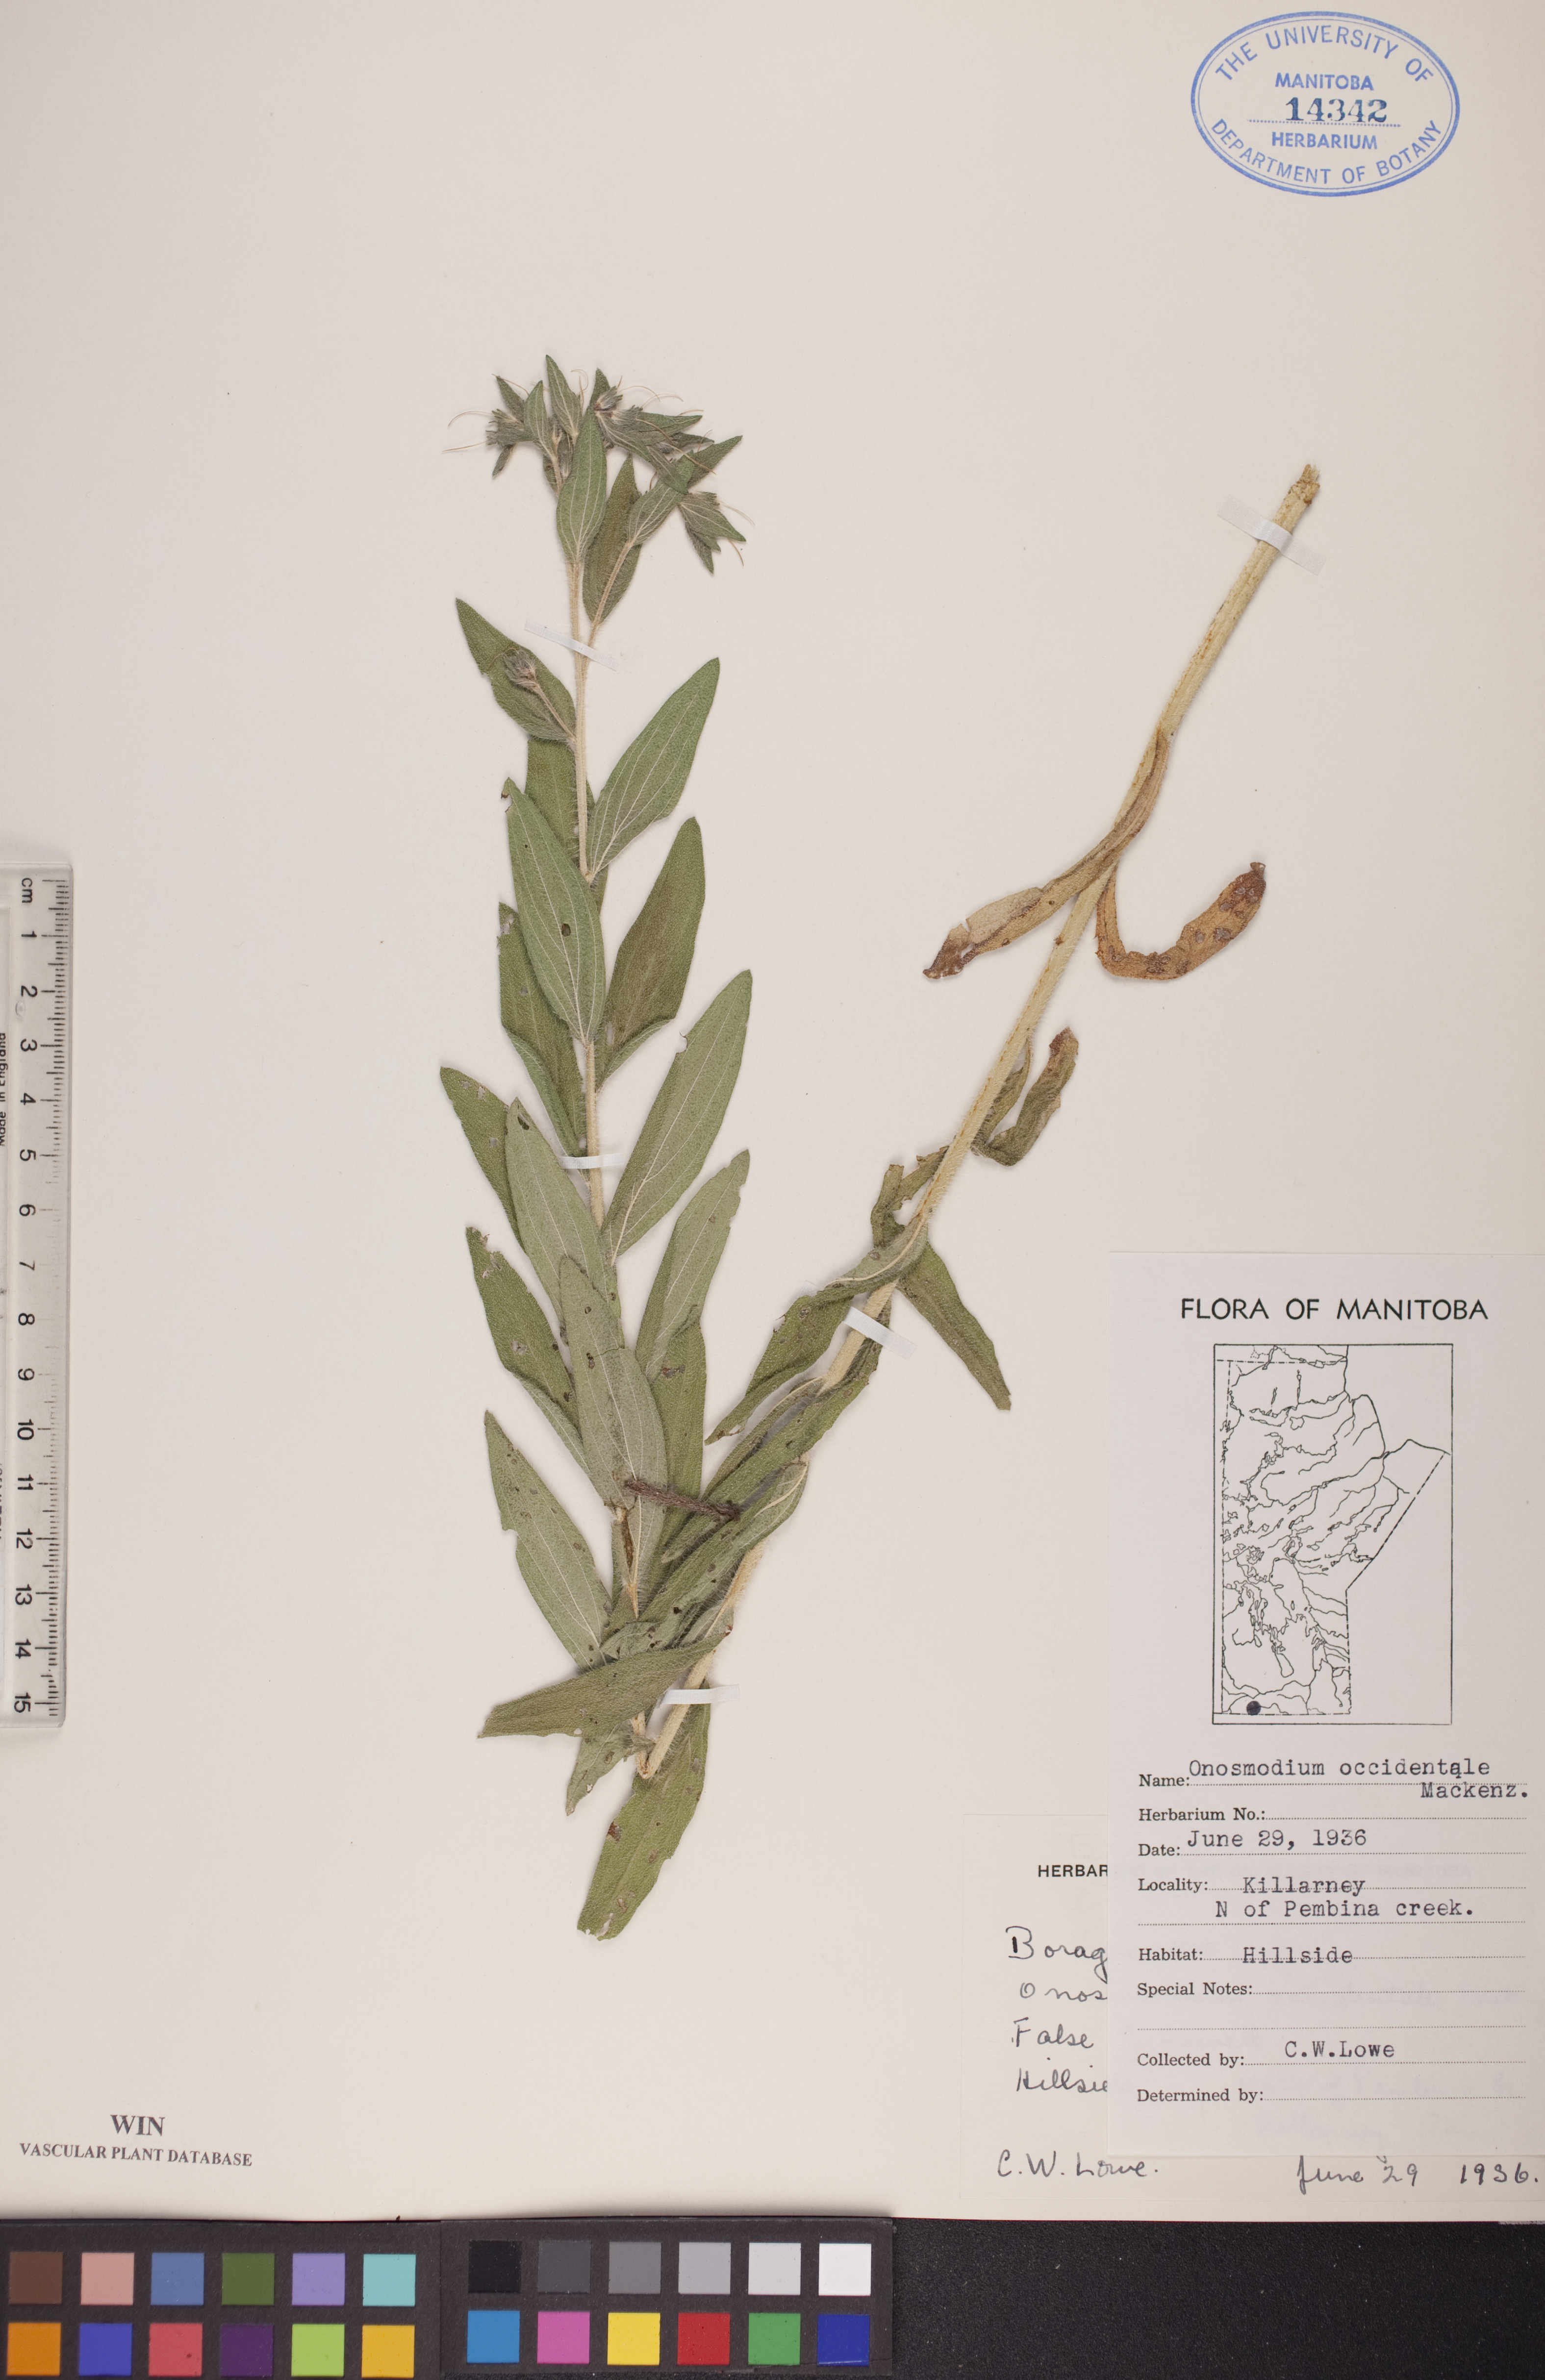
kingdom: Plantae
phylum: Tracheophyta
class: Magnoliopsida
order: Boraginales
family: Boraginaceae
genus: Lithospermum
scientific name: Lithospermum occidentale
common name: Western false gromwell
